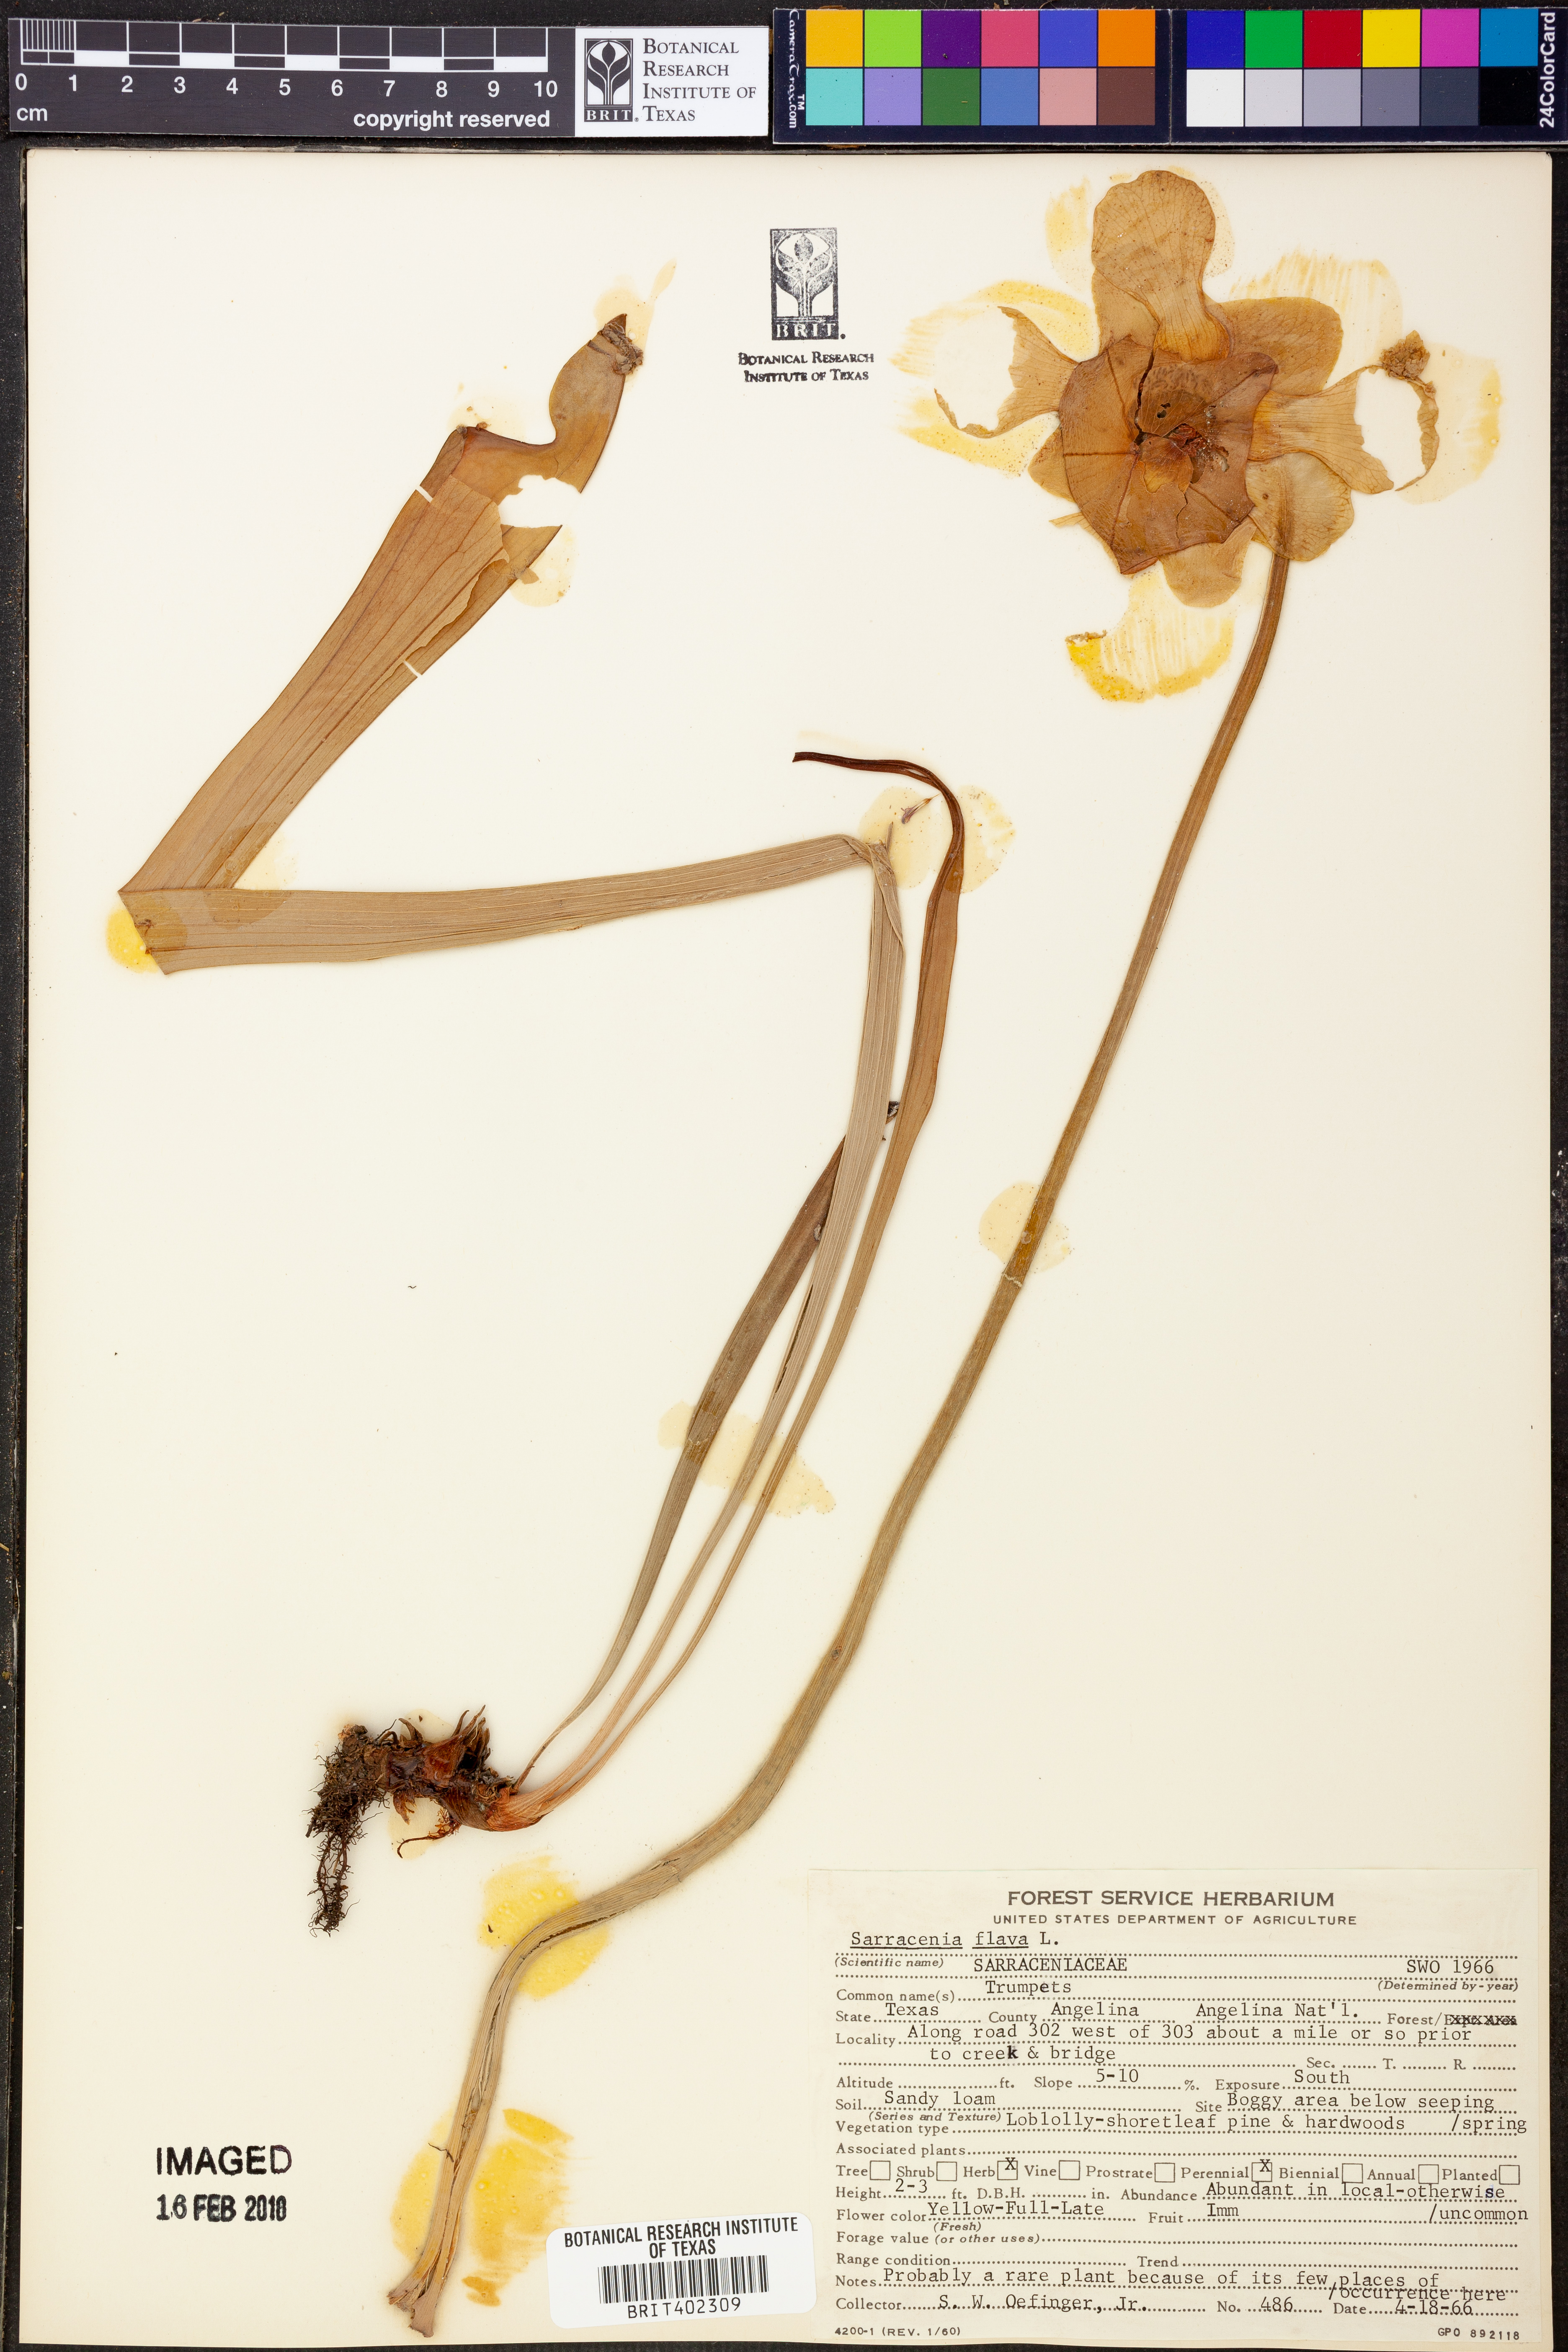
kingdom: Plantae
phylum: Tracheophyta
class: Magnoliopsida
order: Ericales
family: Sarraceniaceae
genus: Sarracenia
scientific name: Sarracenia flava
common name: Trumpets
